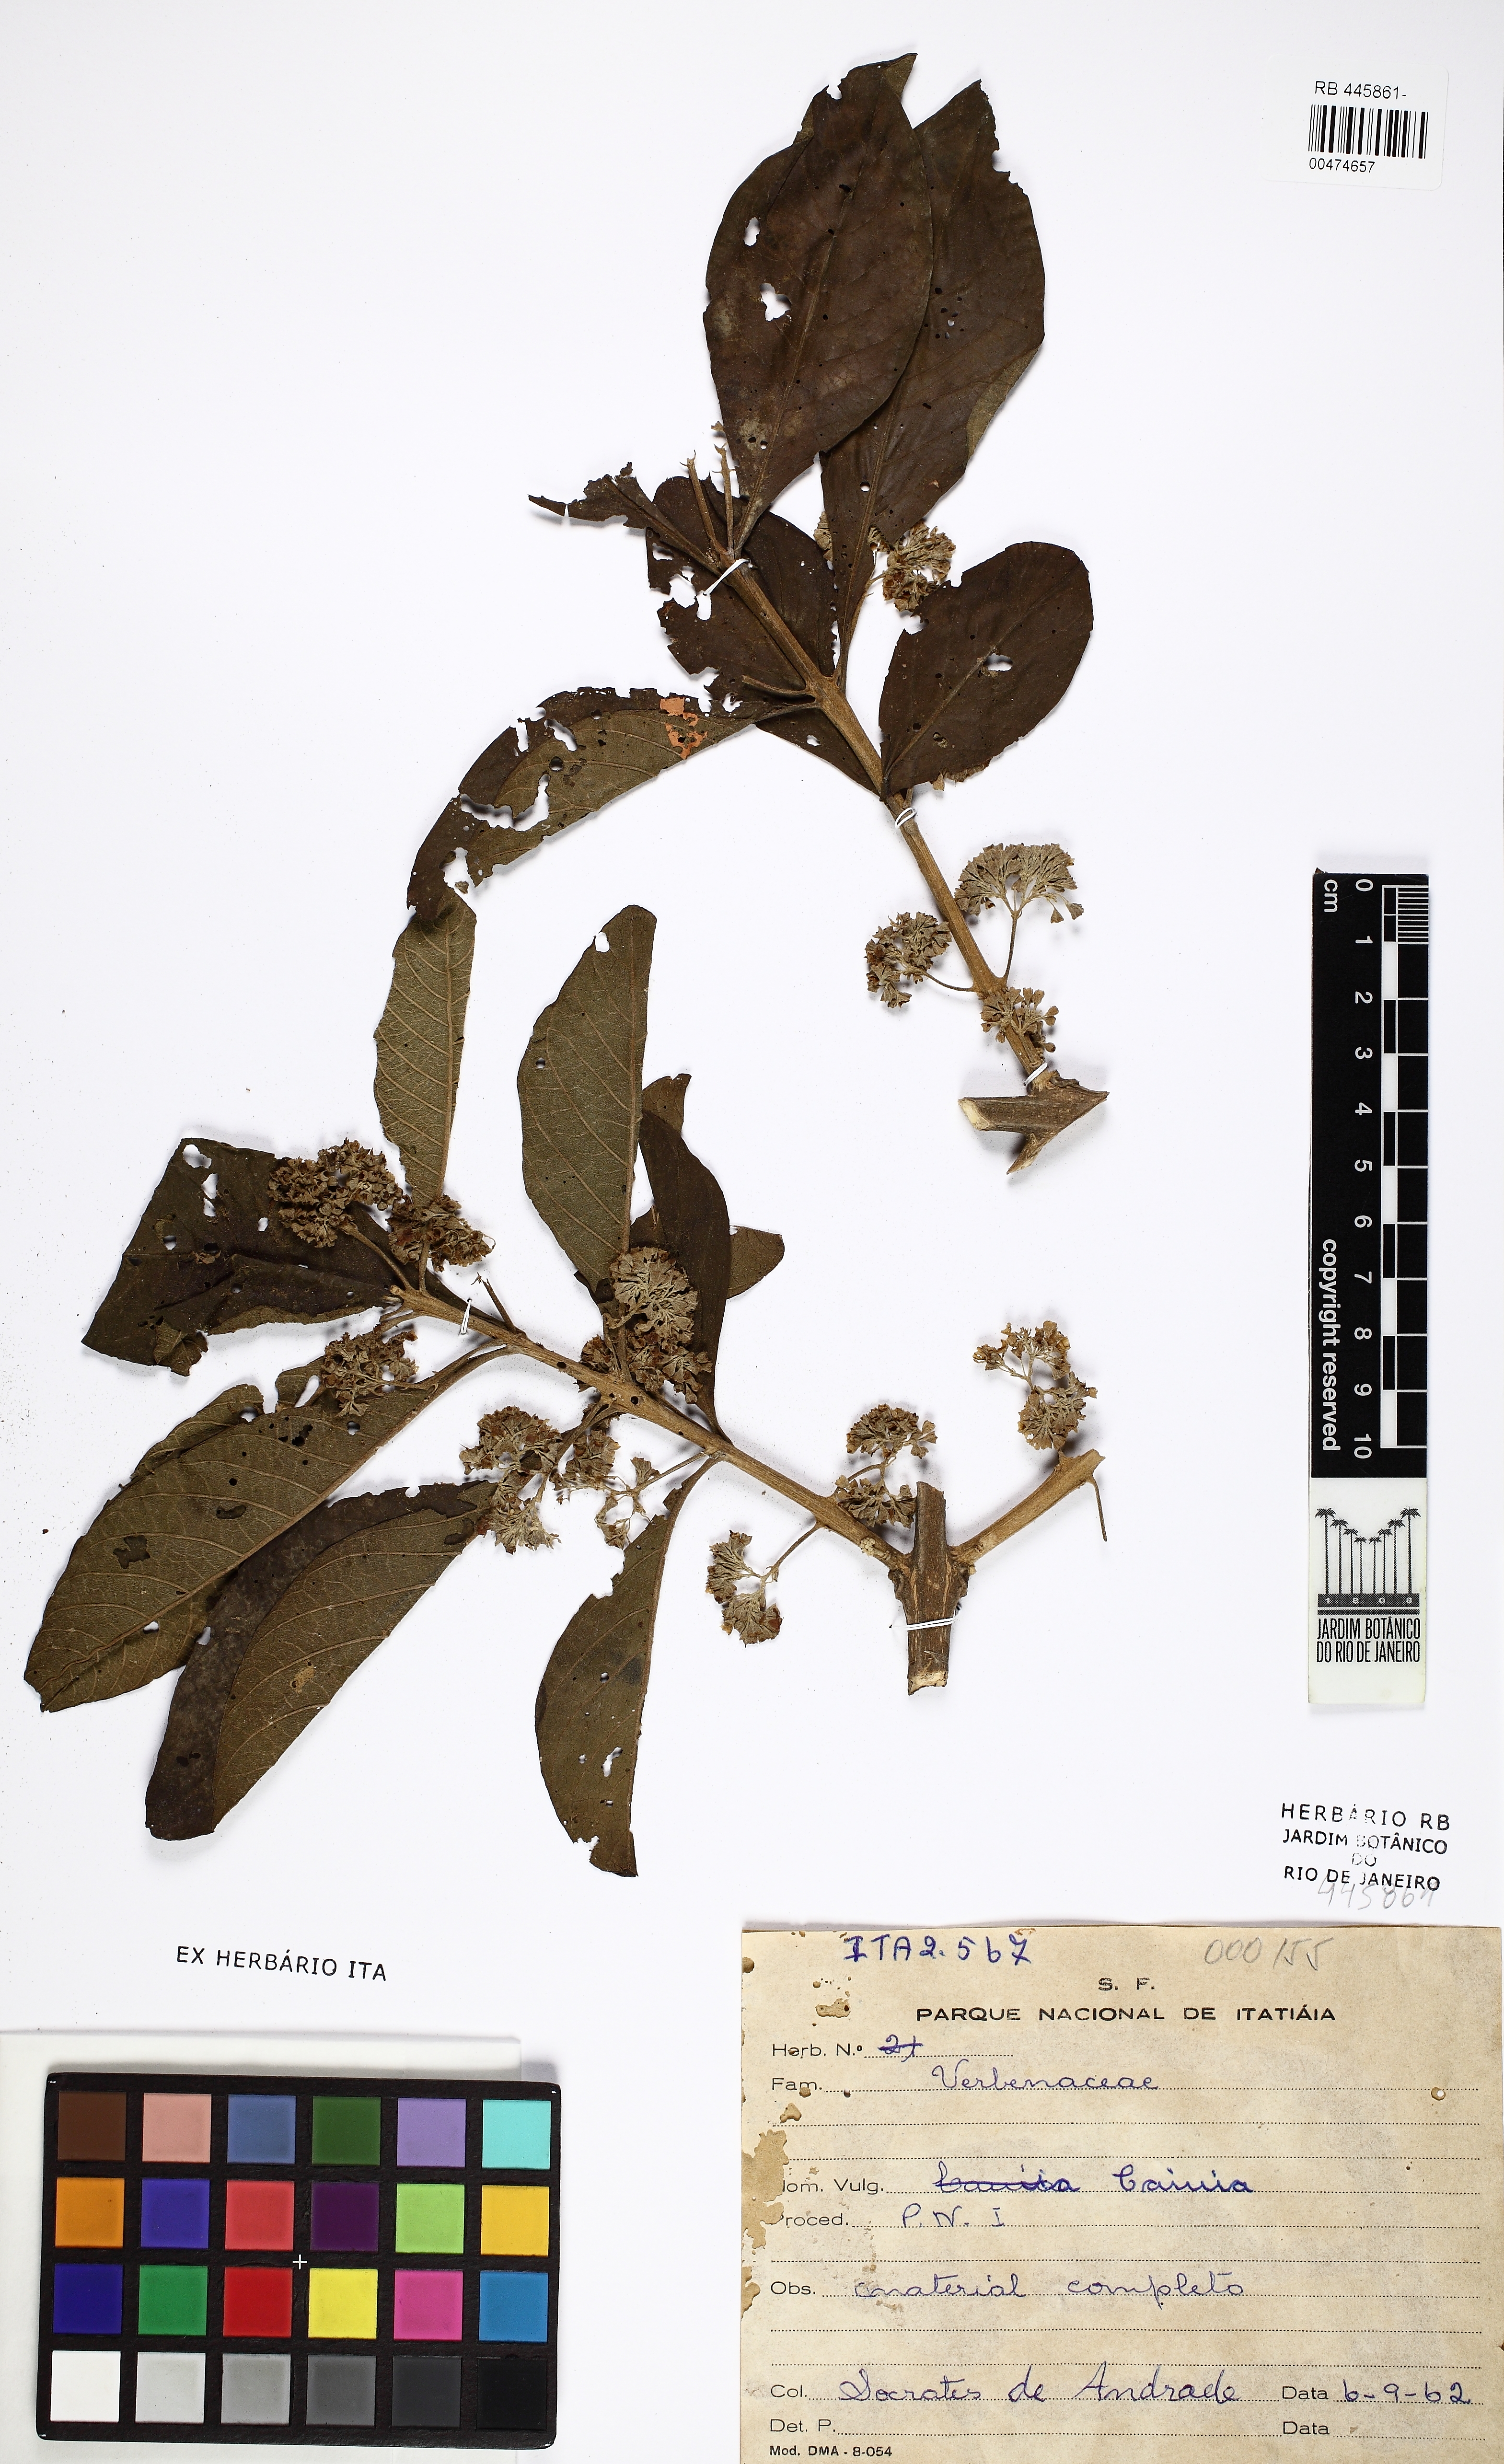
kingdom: Plantae
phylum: Tracheophyta
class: Magnoliopsida
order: Lamiales
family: Verbenaceae
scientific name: Verbenaceae
